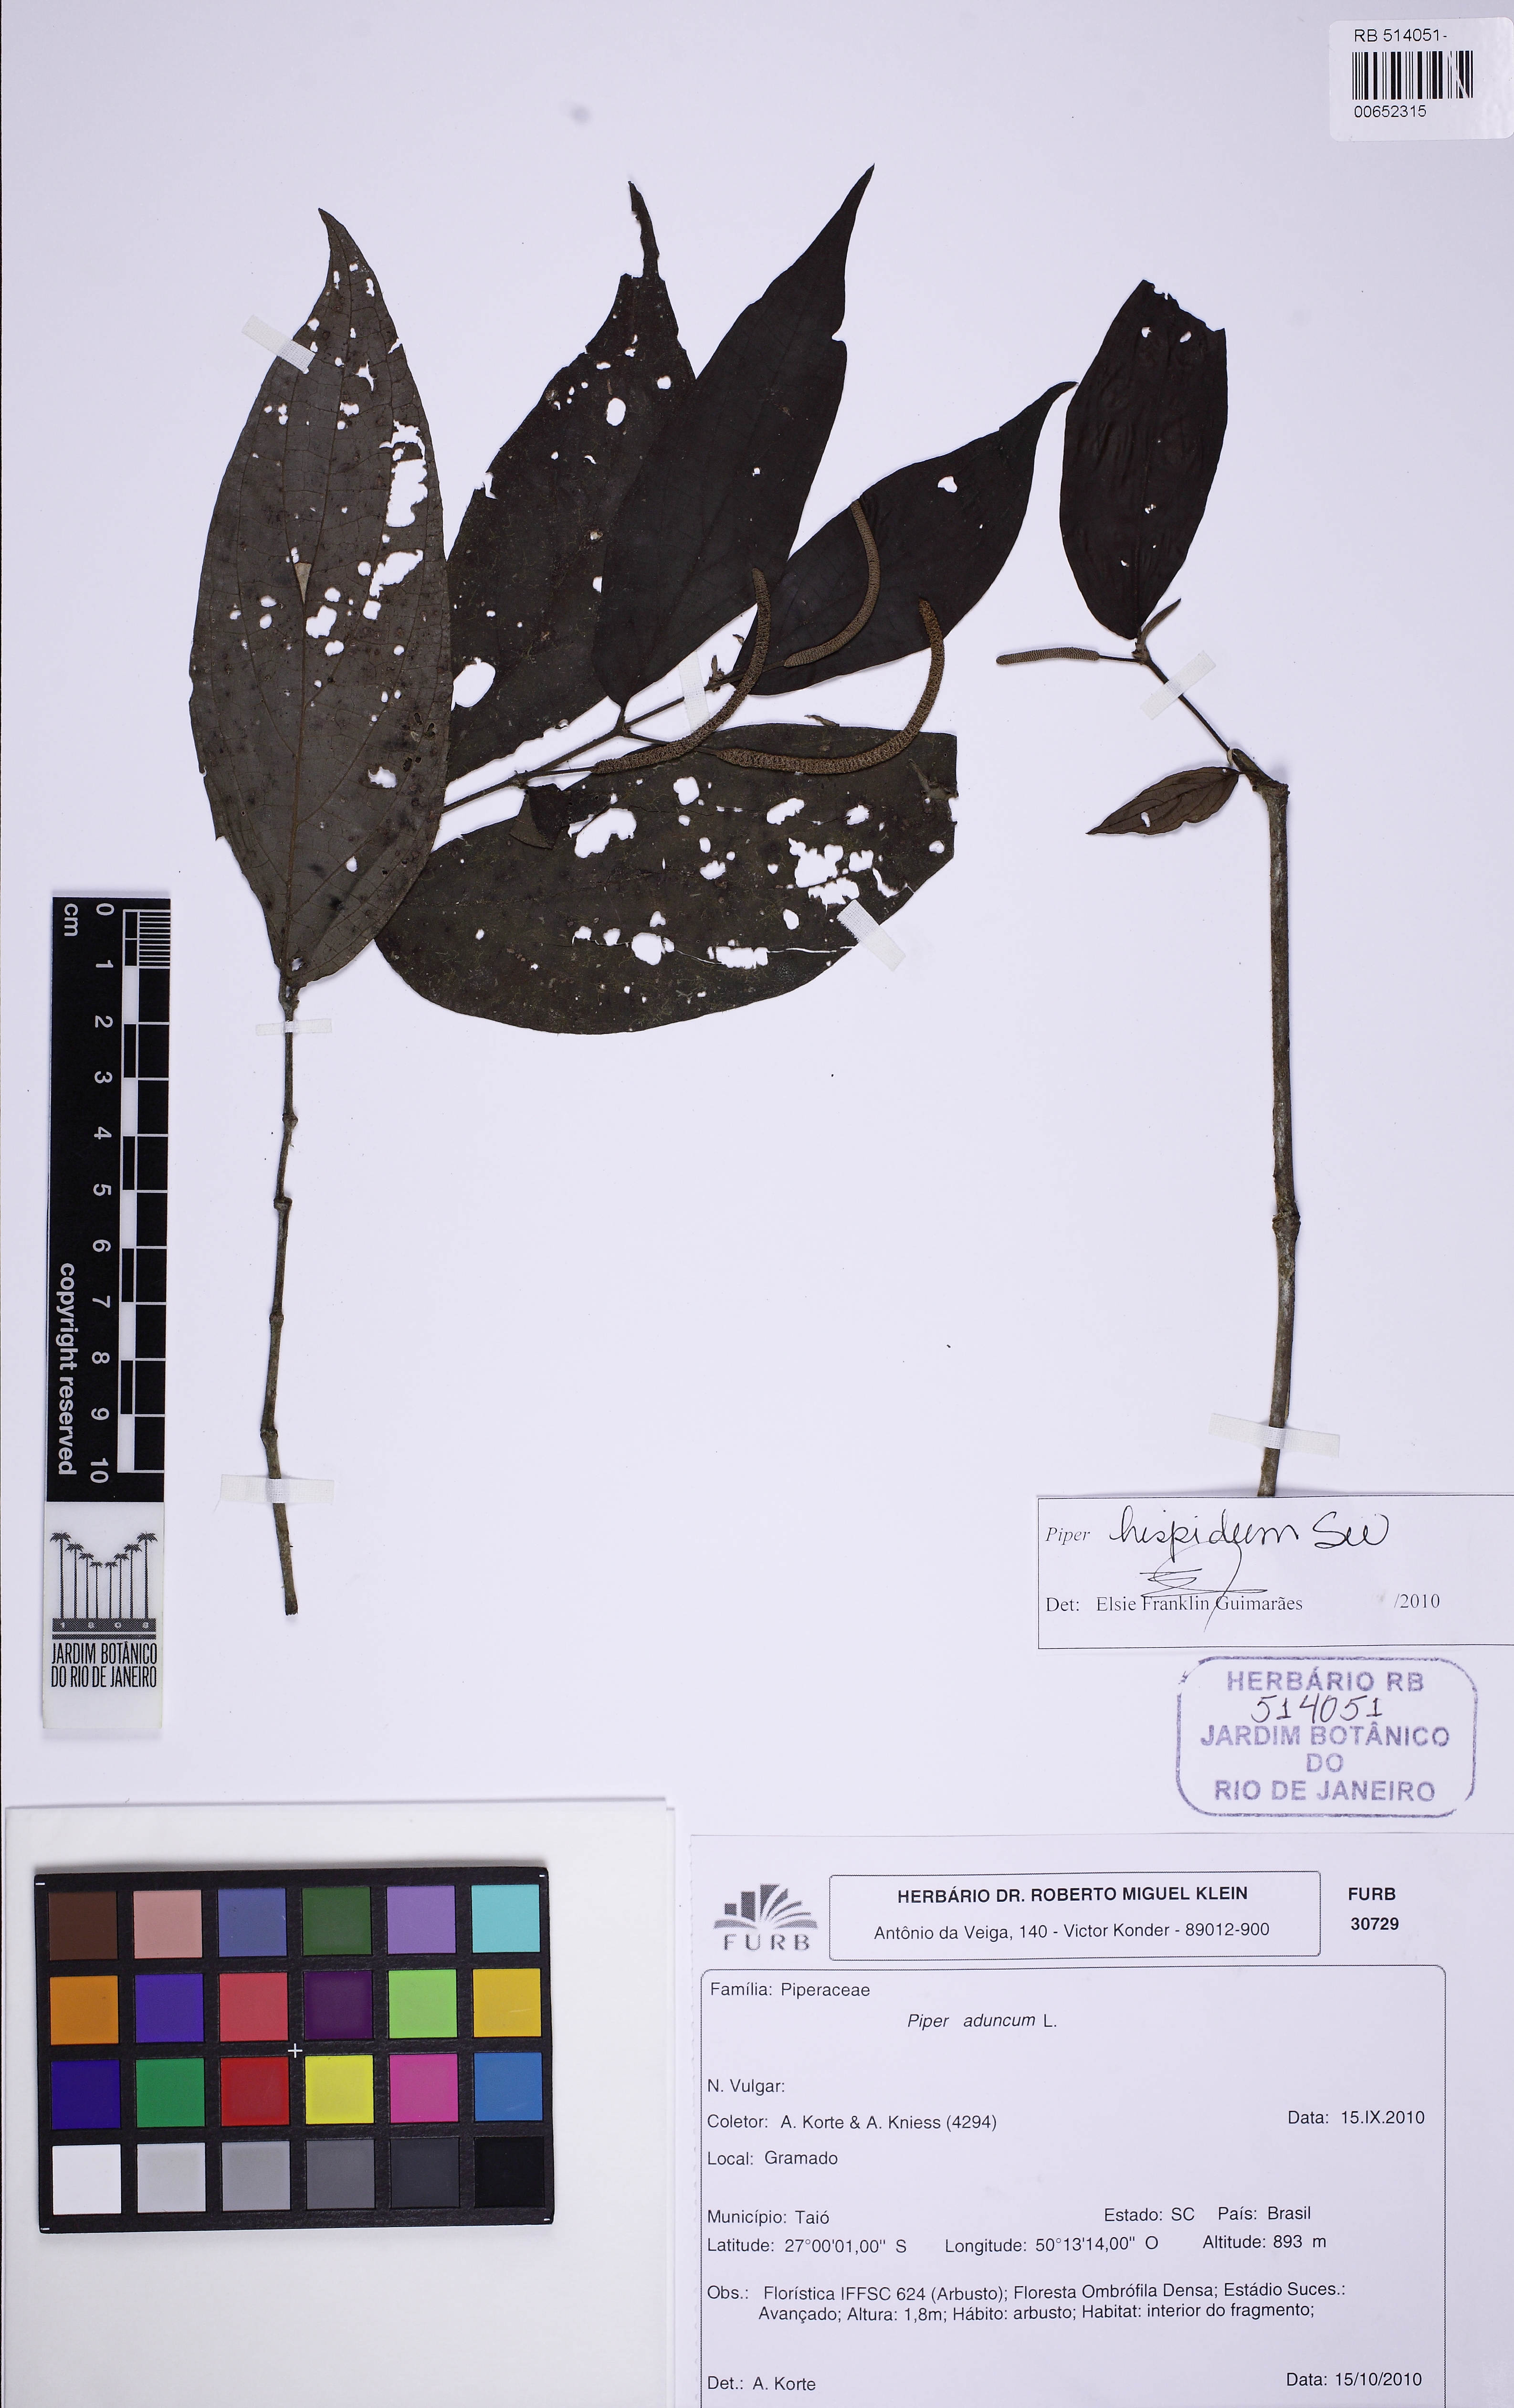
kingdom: Plantae
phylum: Tracheophyta
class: Magnoliopsida
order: Piperales
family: Piperaceae
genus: Piper
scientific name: Piper hispidum
